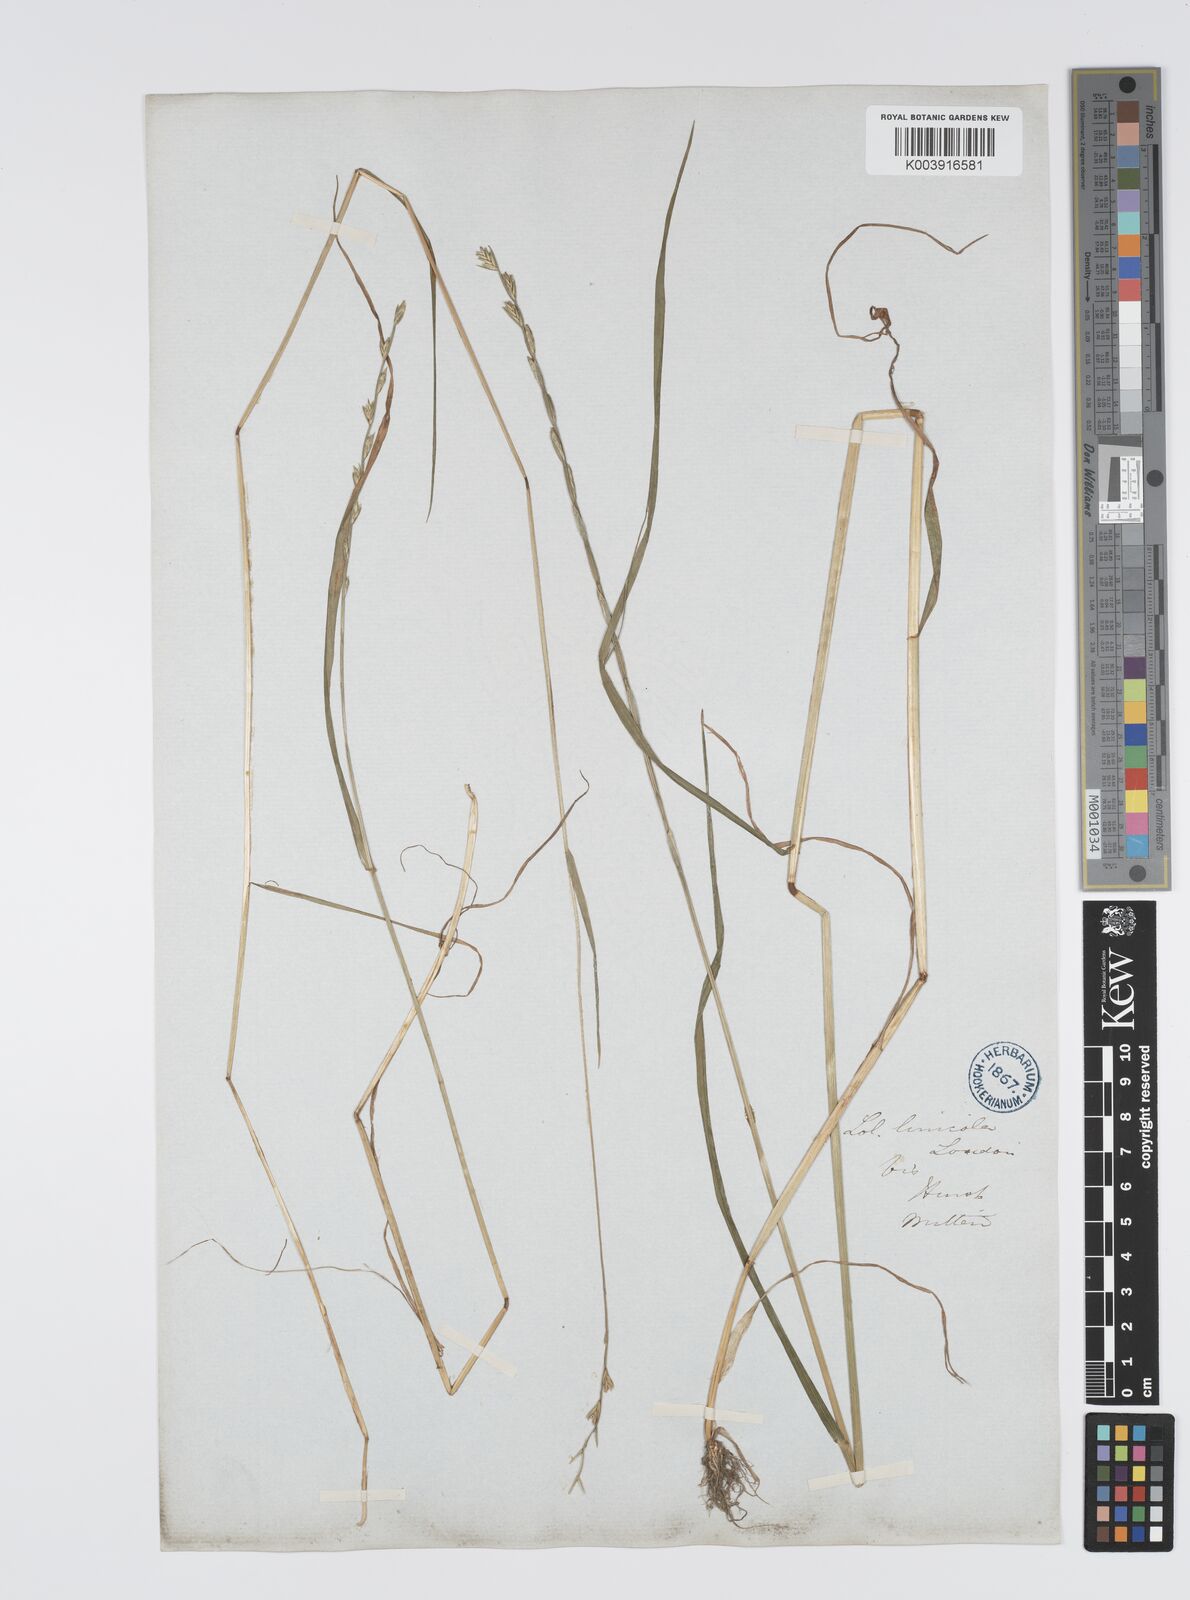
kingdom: Plantae
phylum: Tracheophyta
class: Liliopsida
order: Poales
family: Poaceae
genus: Lolium
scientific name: Lolium remotum
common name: Flaxfield rye-grass
